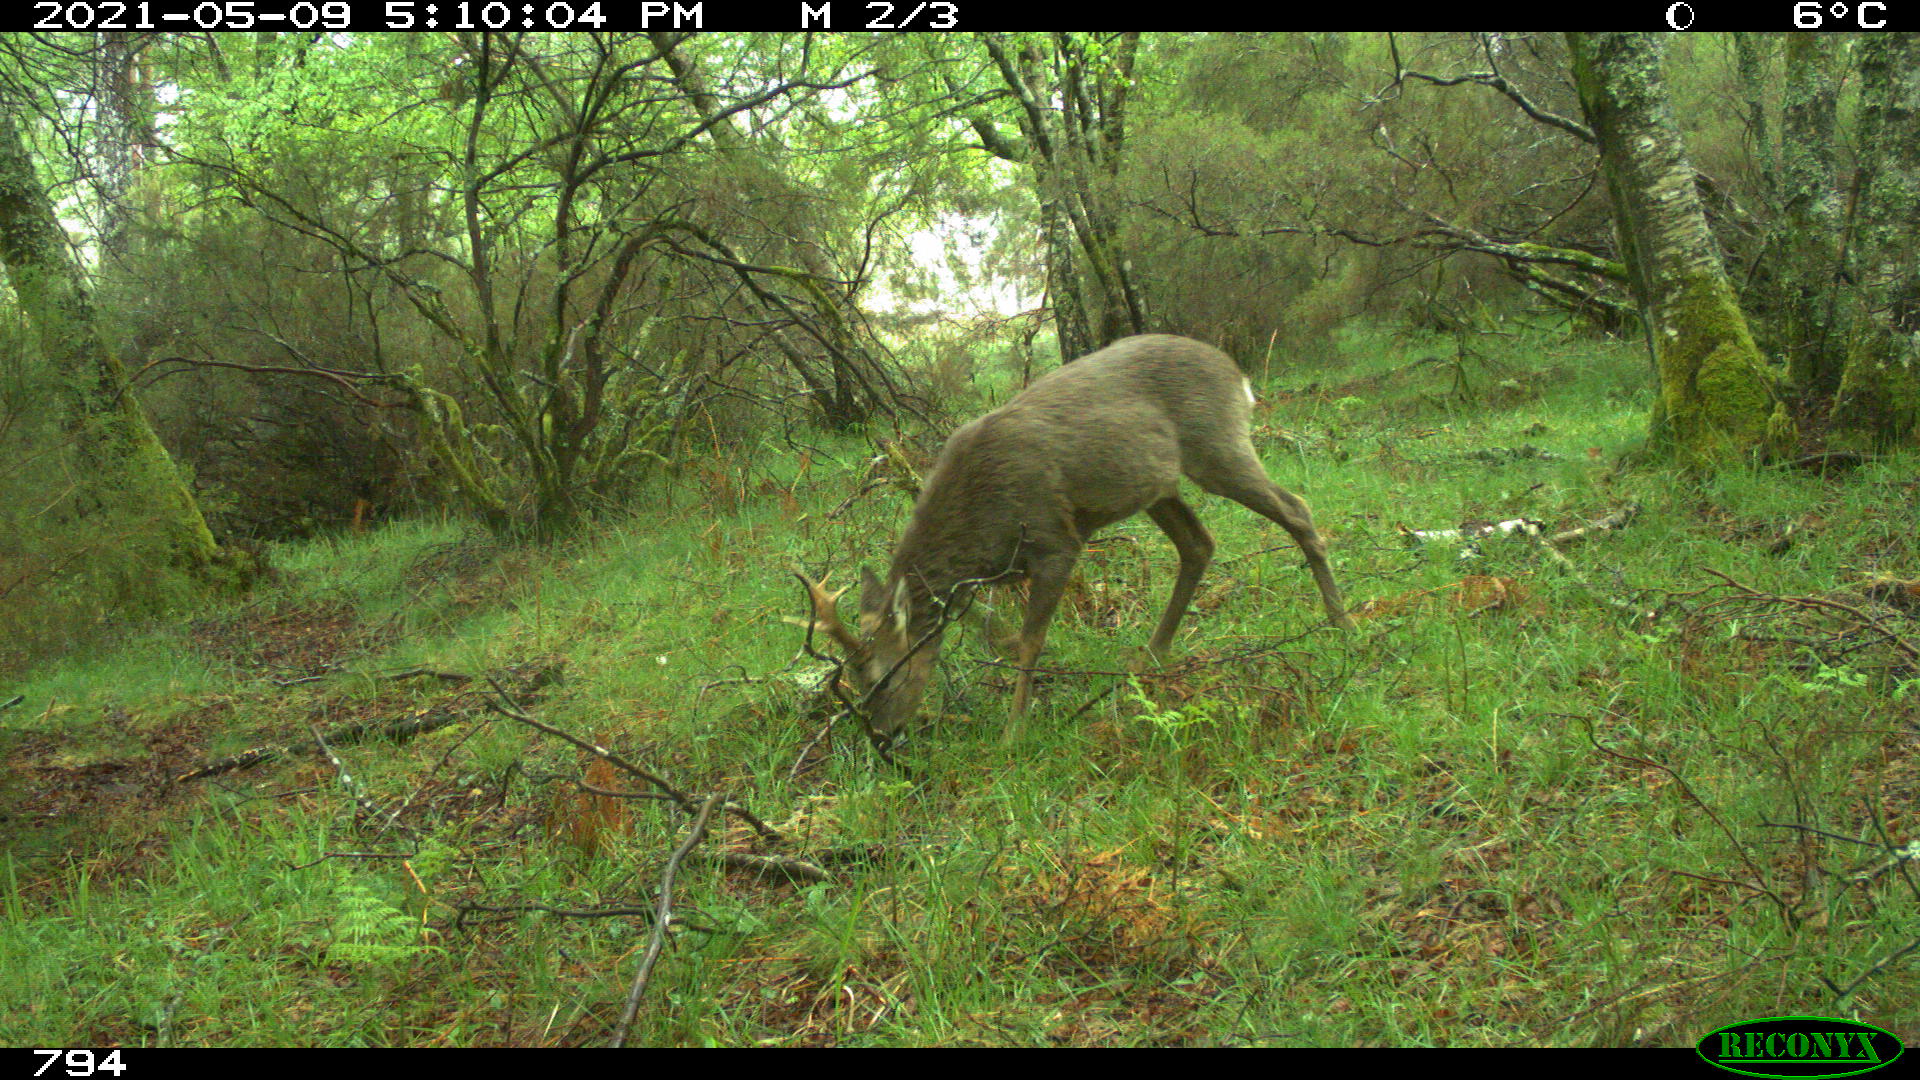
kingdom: Animalia
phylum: Chordata
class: Mammalia
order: Artiodactyla
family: Cervidae
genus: Capreolus
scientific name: Capreolus capreolus
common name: Western roe deer
